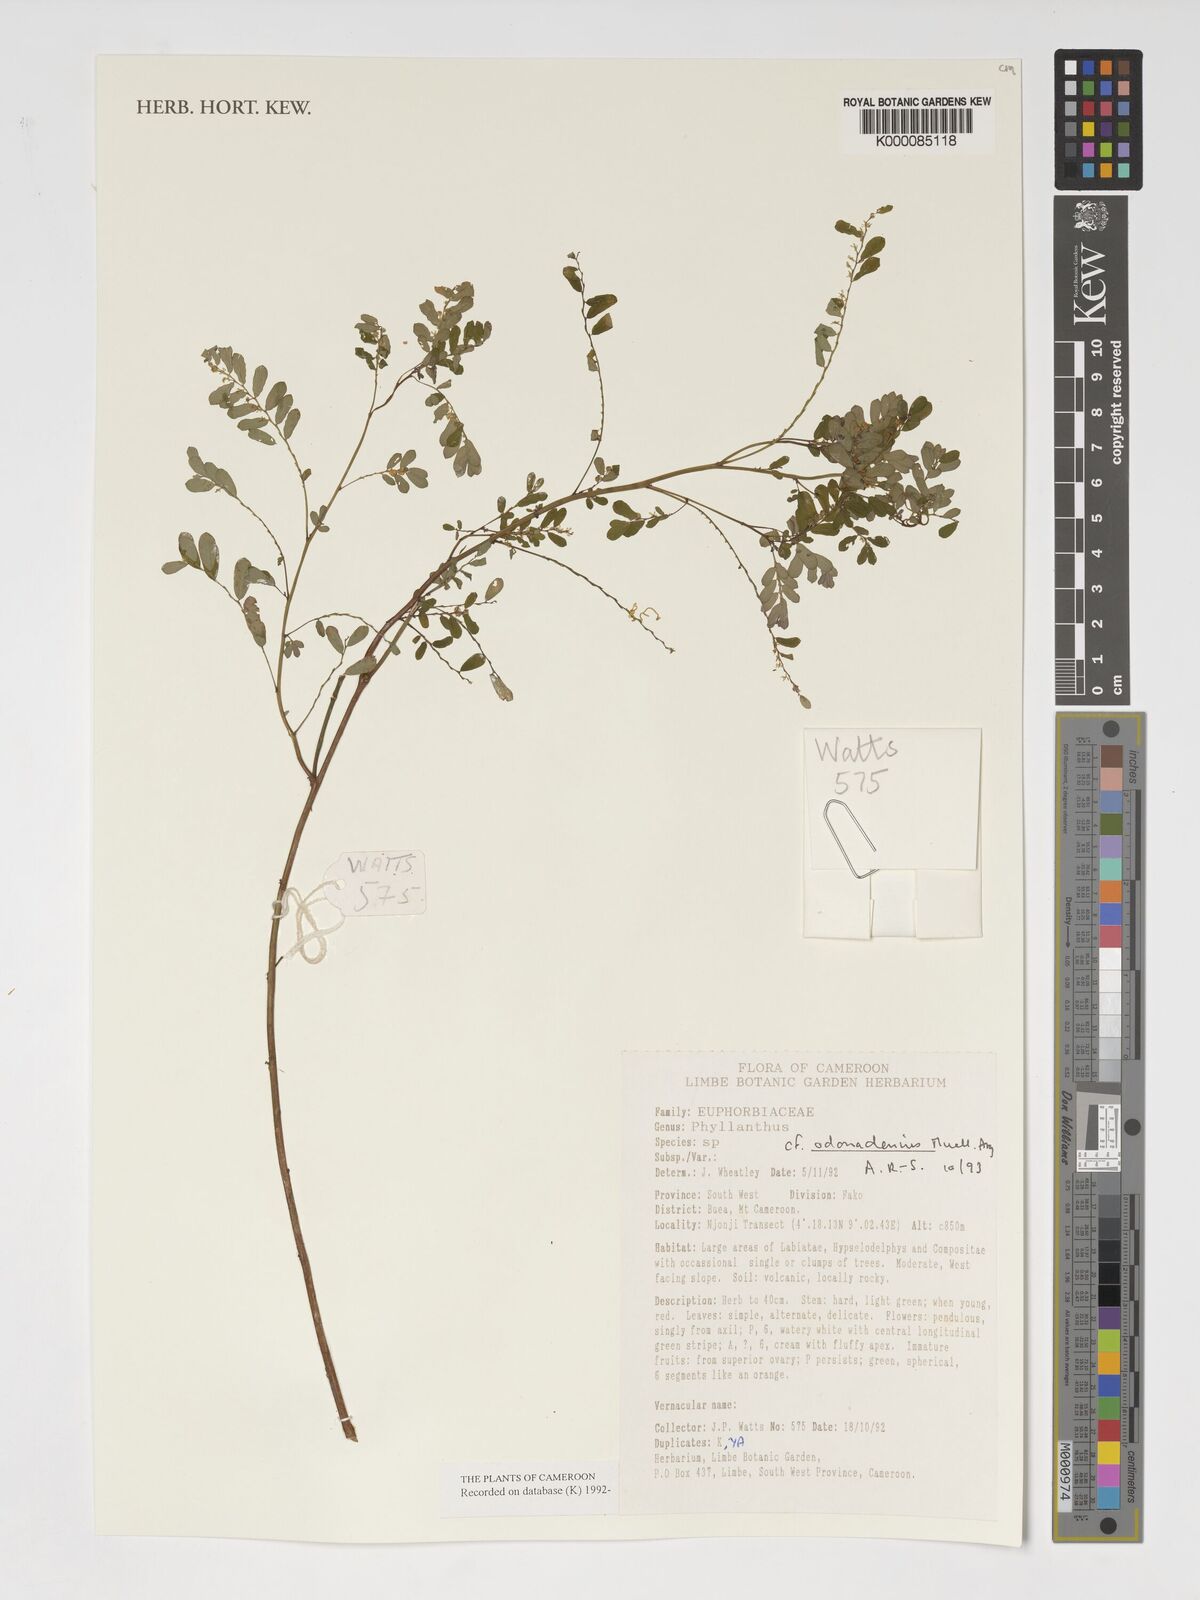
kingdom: Plantae
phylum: Tracheophyta
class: Magnoliopsida
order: Malpighiales
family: Phyllanthaceae
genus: Phyllanthus
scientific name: Phyllanthus
